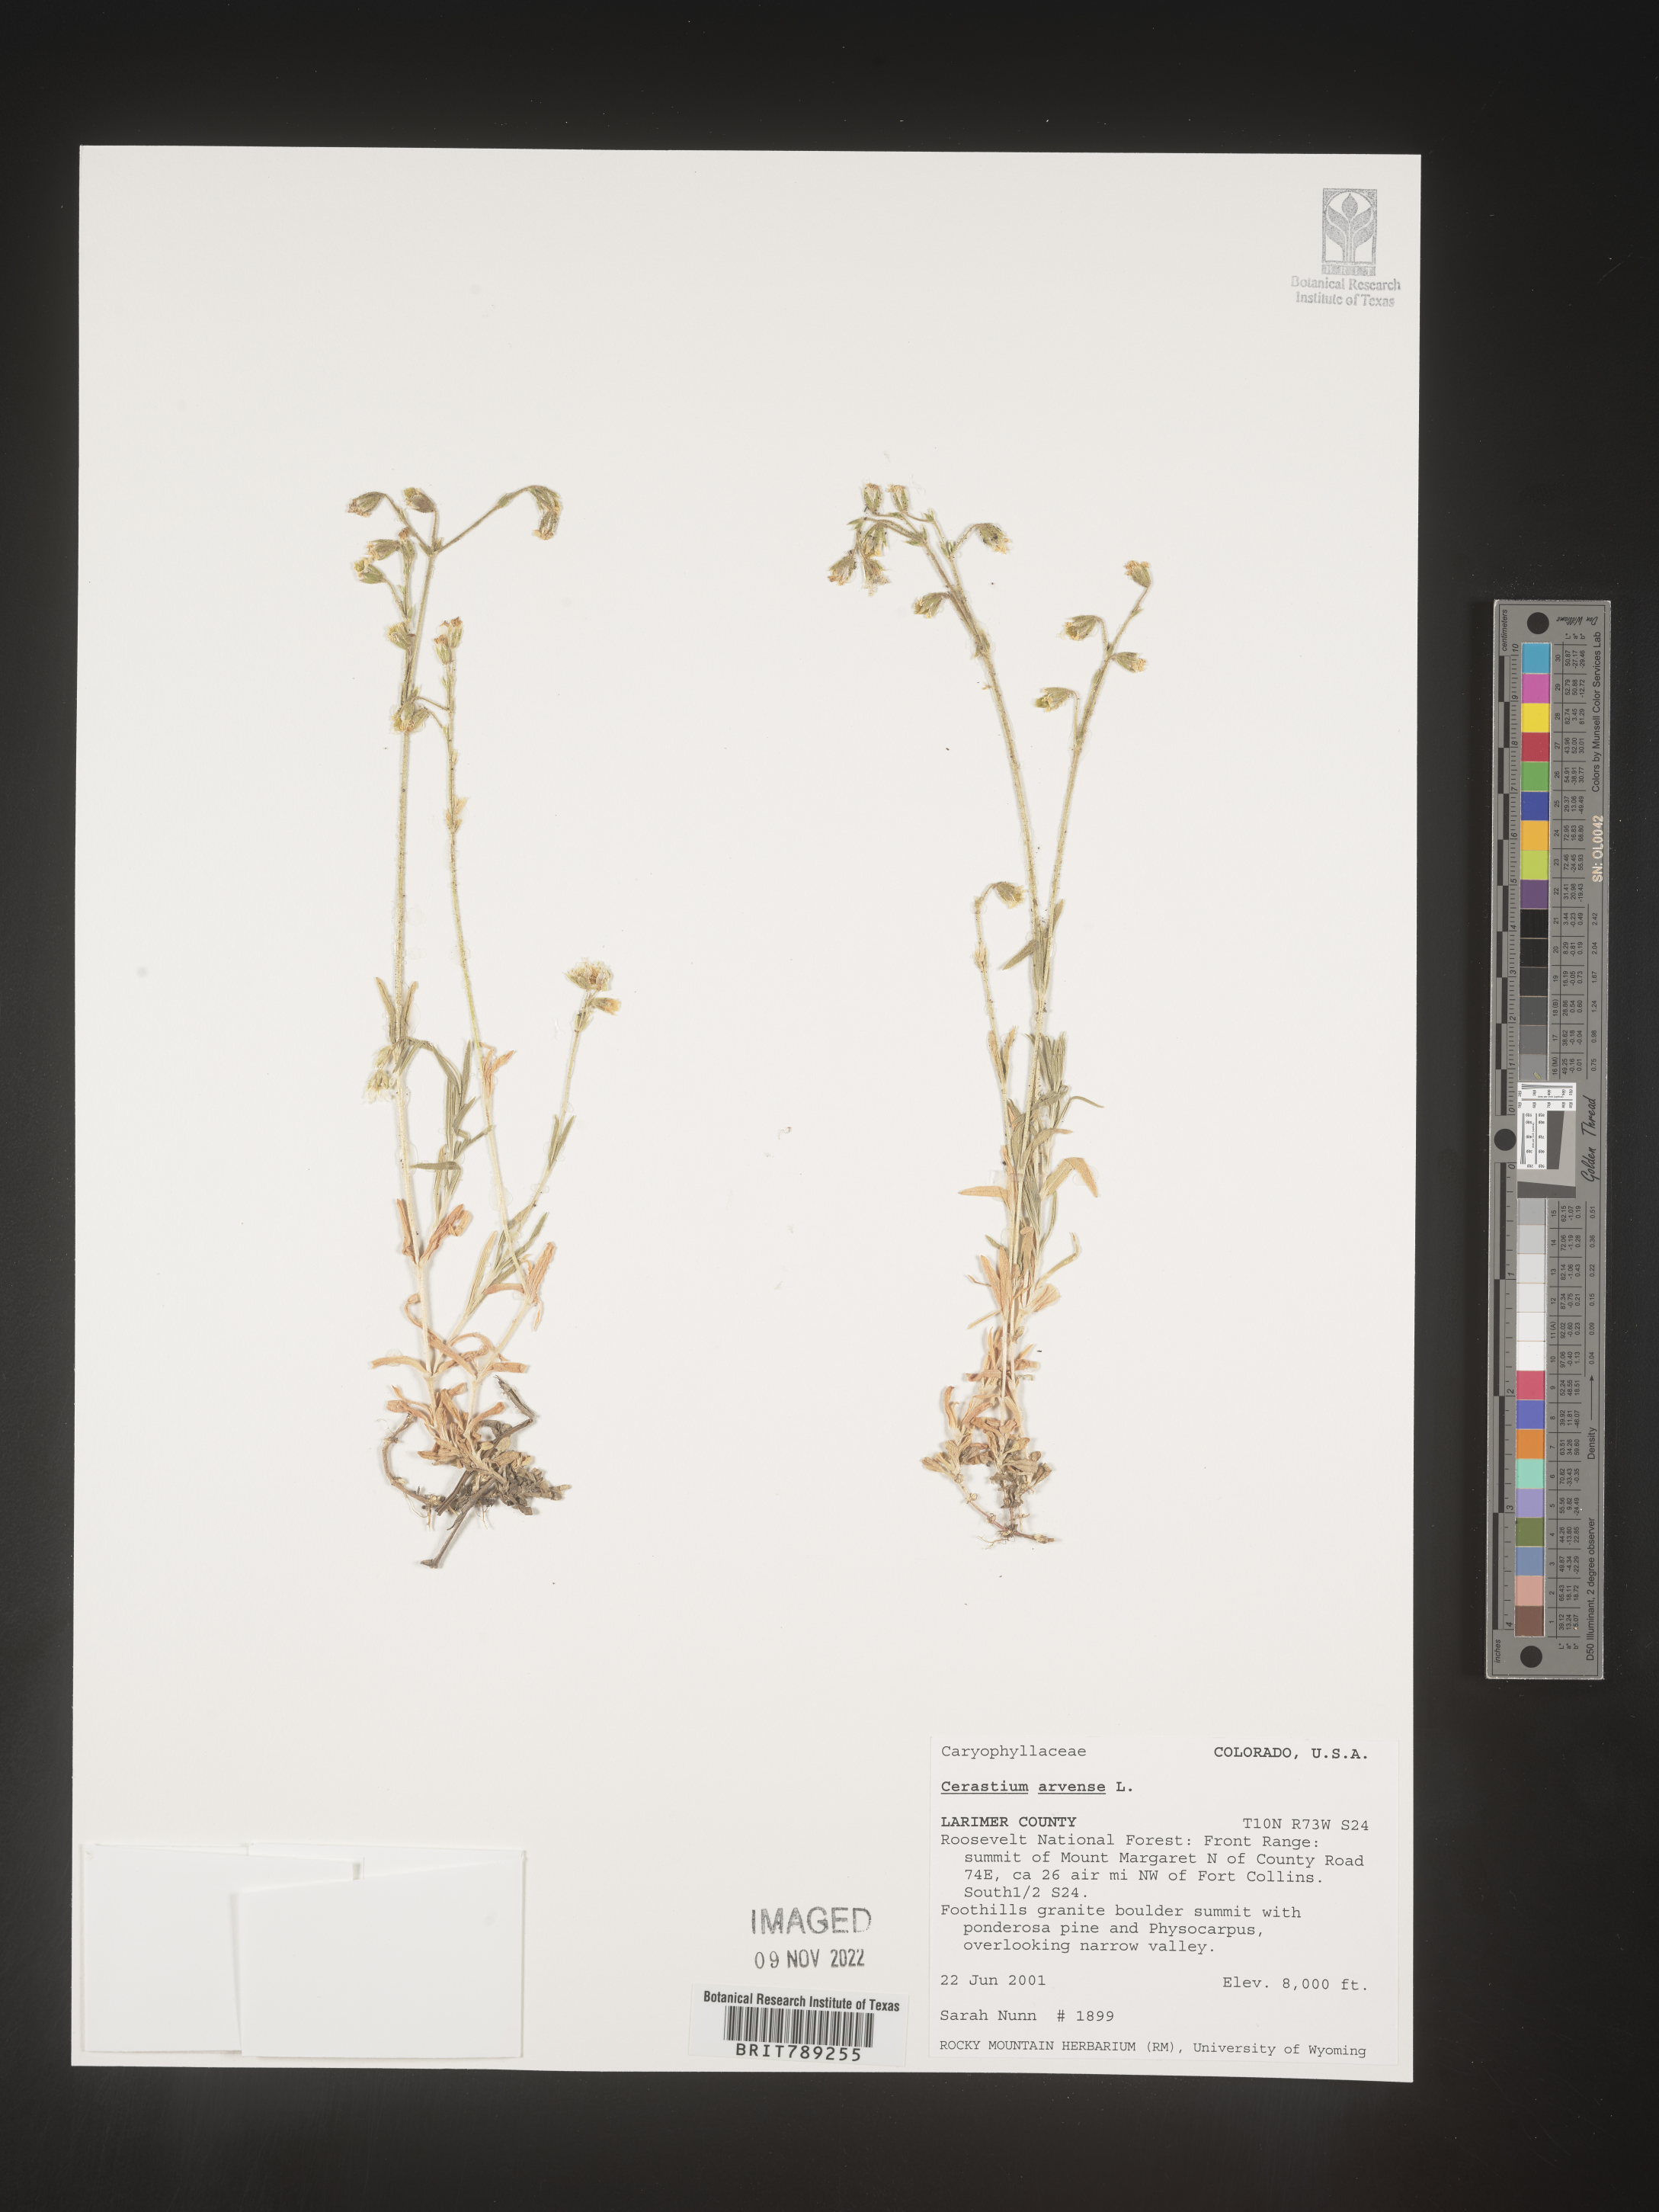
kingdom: Plantae
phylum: Tracheophyta
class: Magnoliopsida
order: Caryophyllales
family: Caryophyllaceae
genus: Cerastium
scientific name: Cerastium arvense
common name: Field mouse-ear
